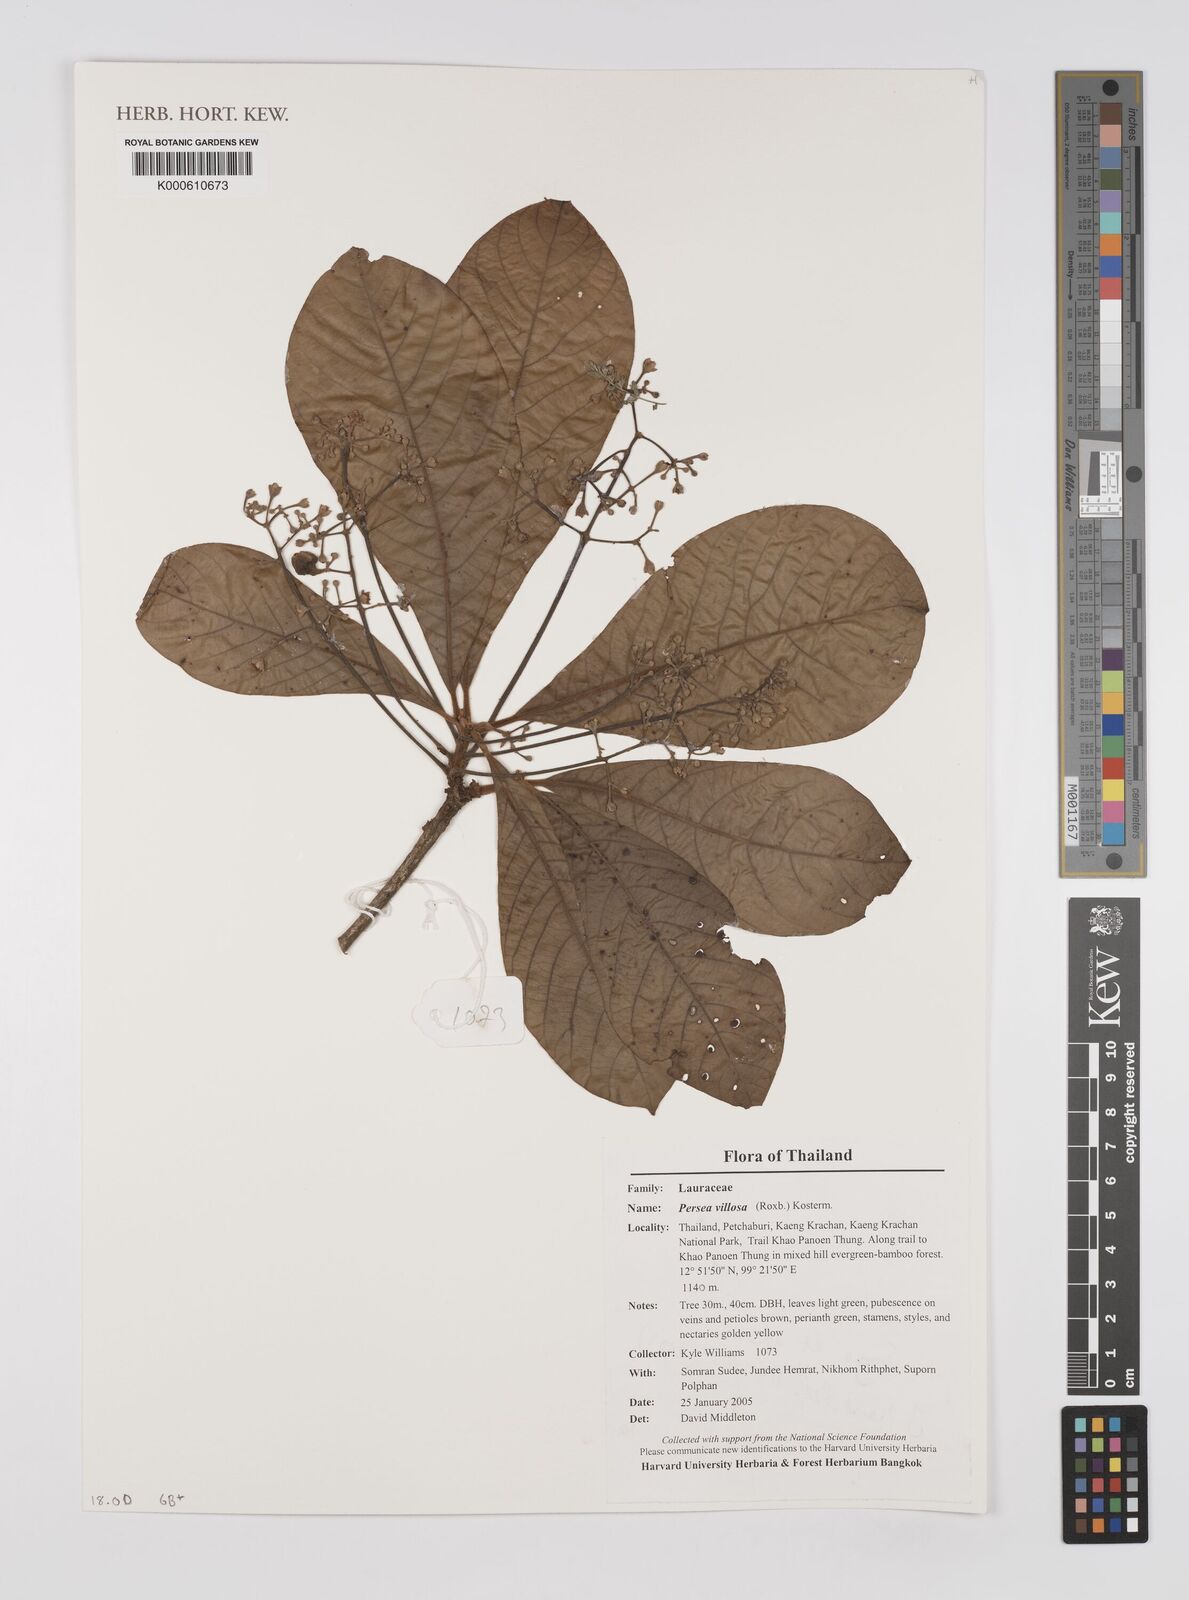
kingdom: Plantae
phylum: Tracheophyta
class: Magnoliopsida
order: Laurales
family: Lauraceae
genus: Machilus
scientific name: Machilus villosa
